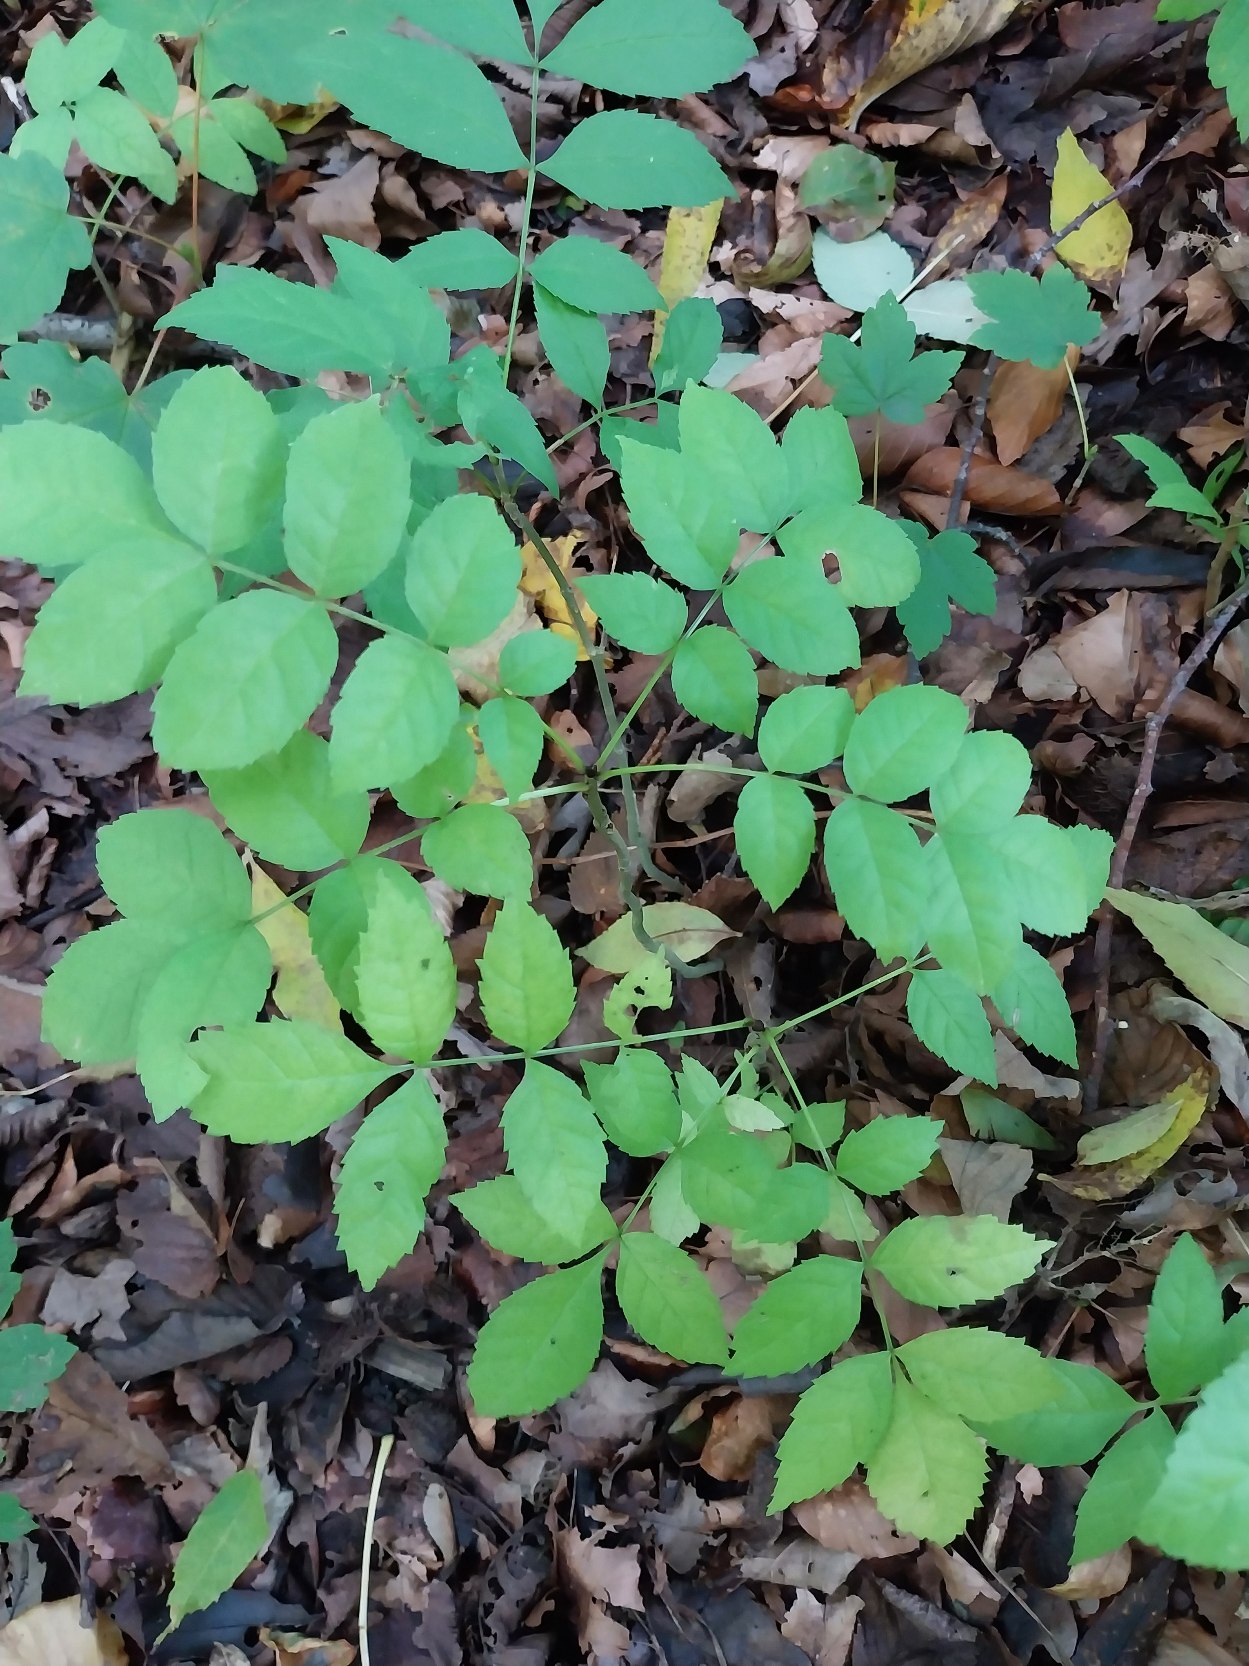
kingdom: Plantae
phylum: Tracheophyta
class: Magnoliopsida
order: Lamiales
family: Oleaceae
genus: Fraxinus
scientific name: Fraxinus excelsior
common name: Ask
